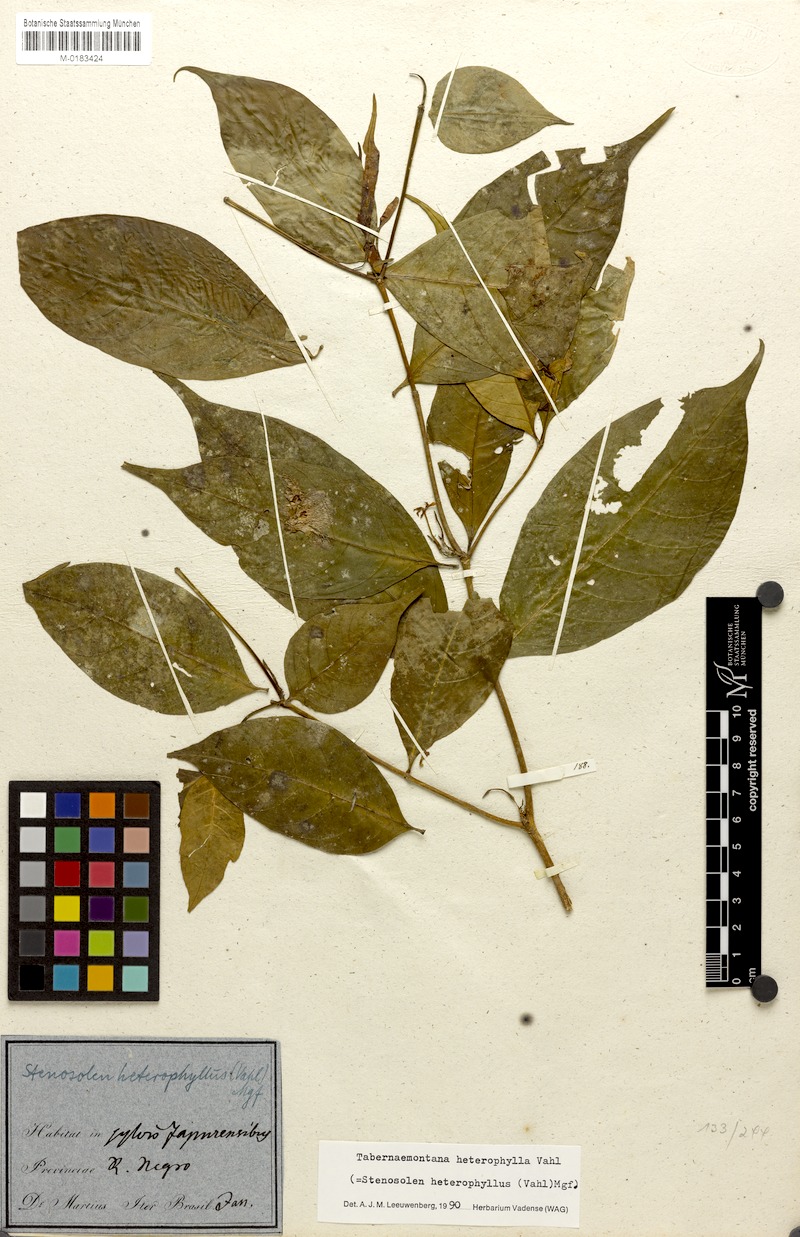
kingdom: Plantae
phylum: Tracheophyta
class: Magnoliopsida
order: Gentianales
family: Apocynaceae
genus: Tabernaemontana
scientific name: Tabernaemontana heterophylla
